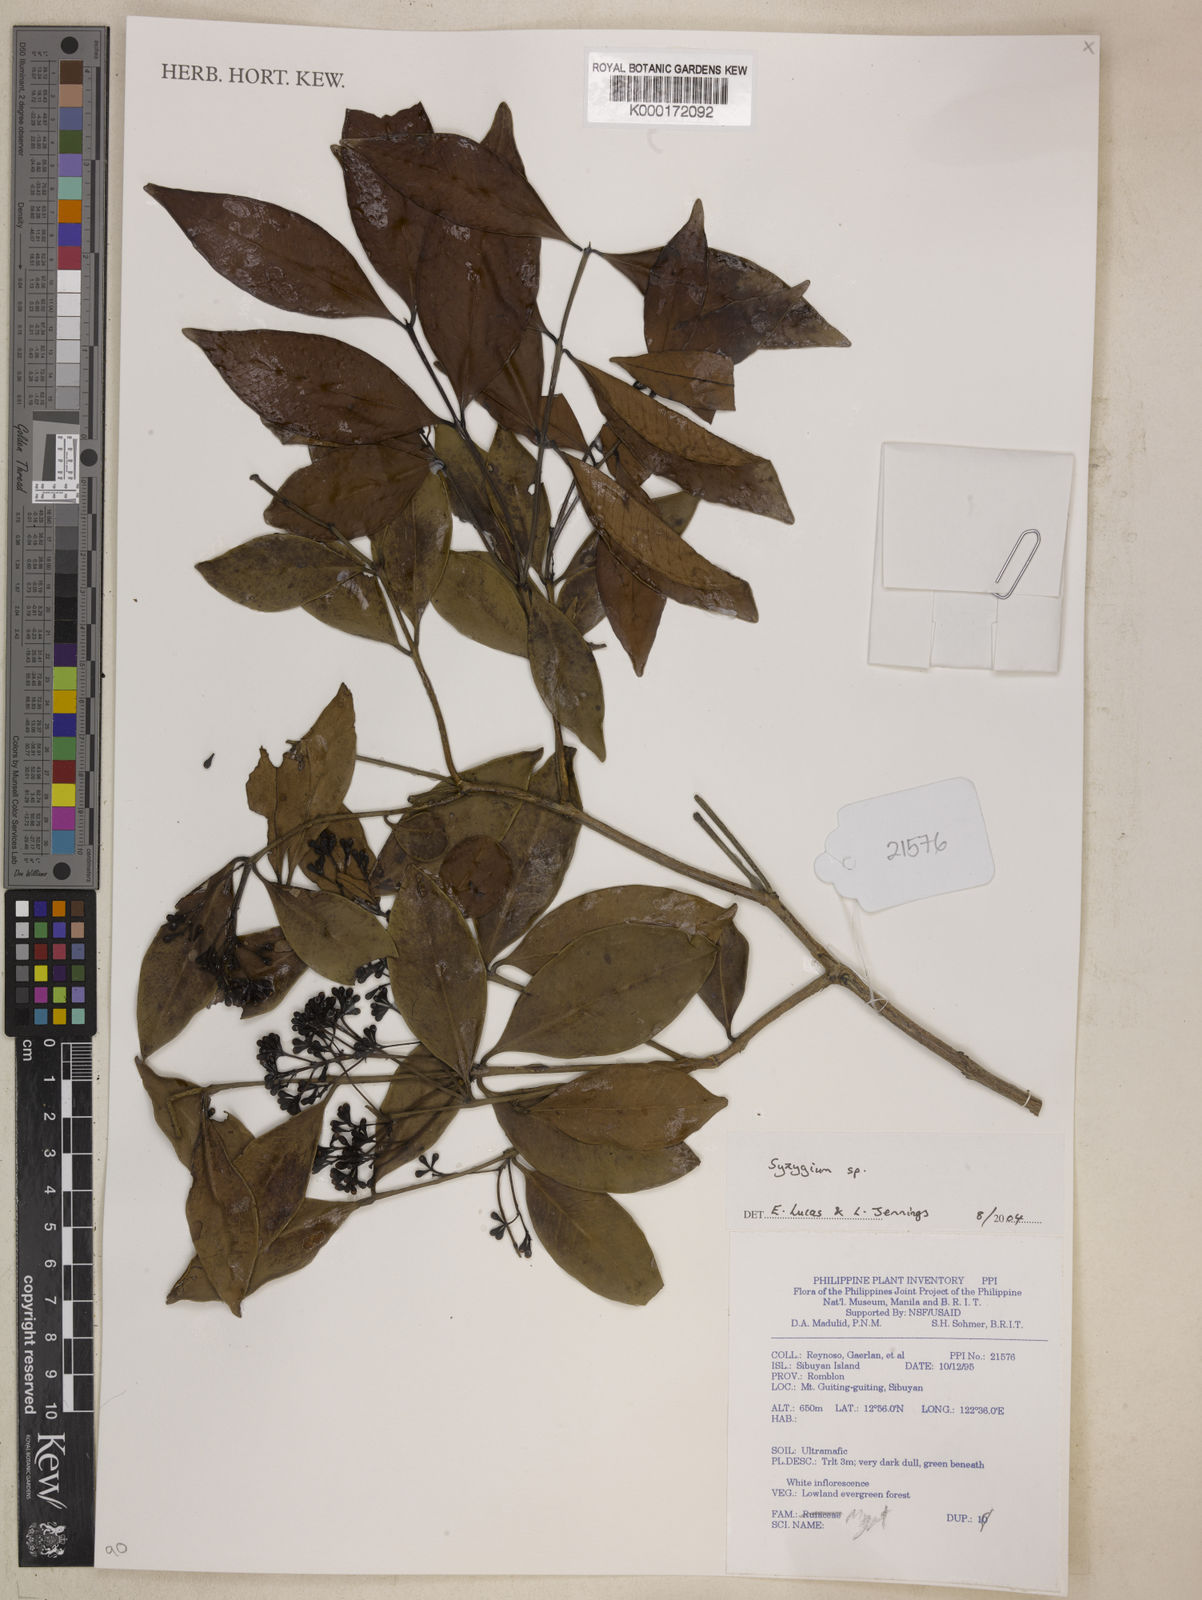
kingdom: Plantae
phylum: Tracheophyta
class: Magnoliopsida
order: Myrtales
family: Myrtaceae
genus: Syzygium
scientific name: Syzygium
